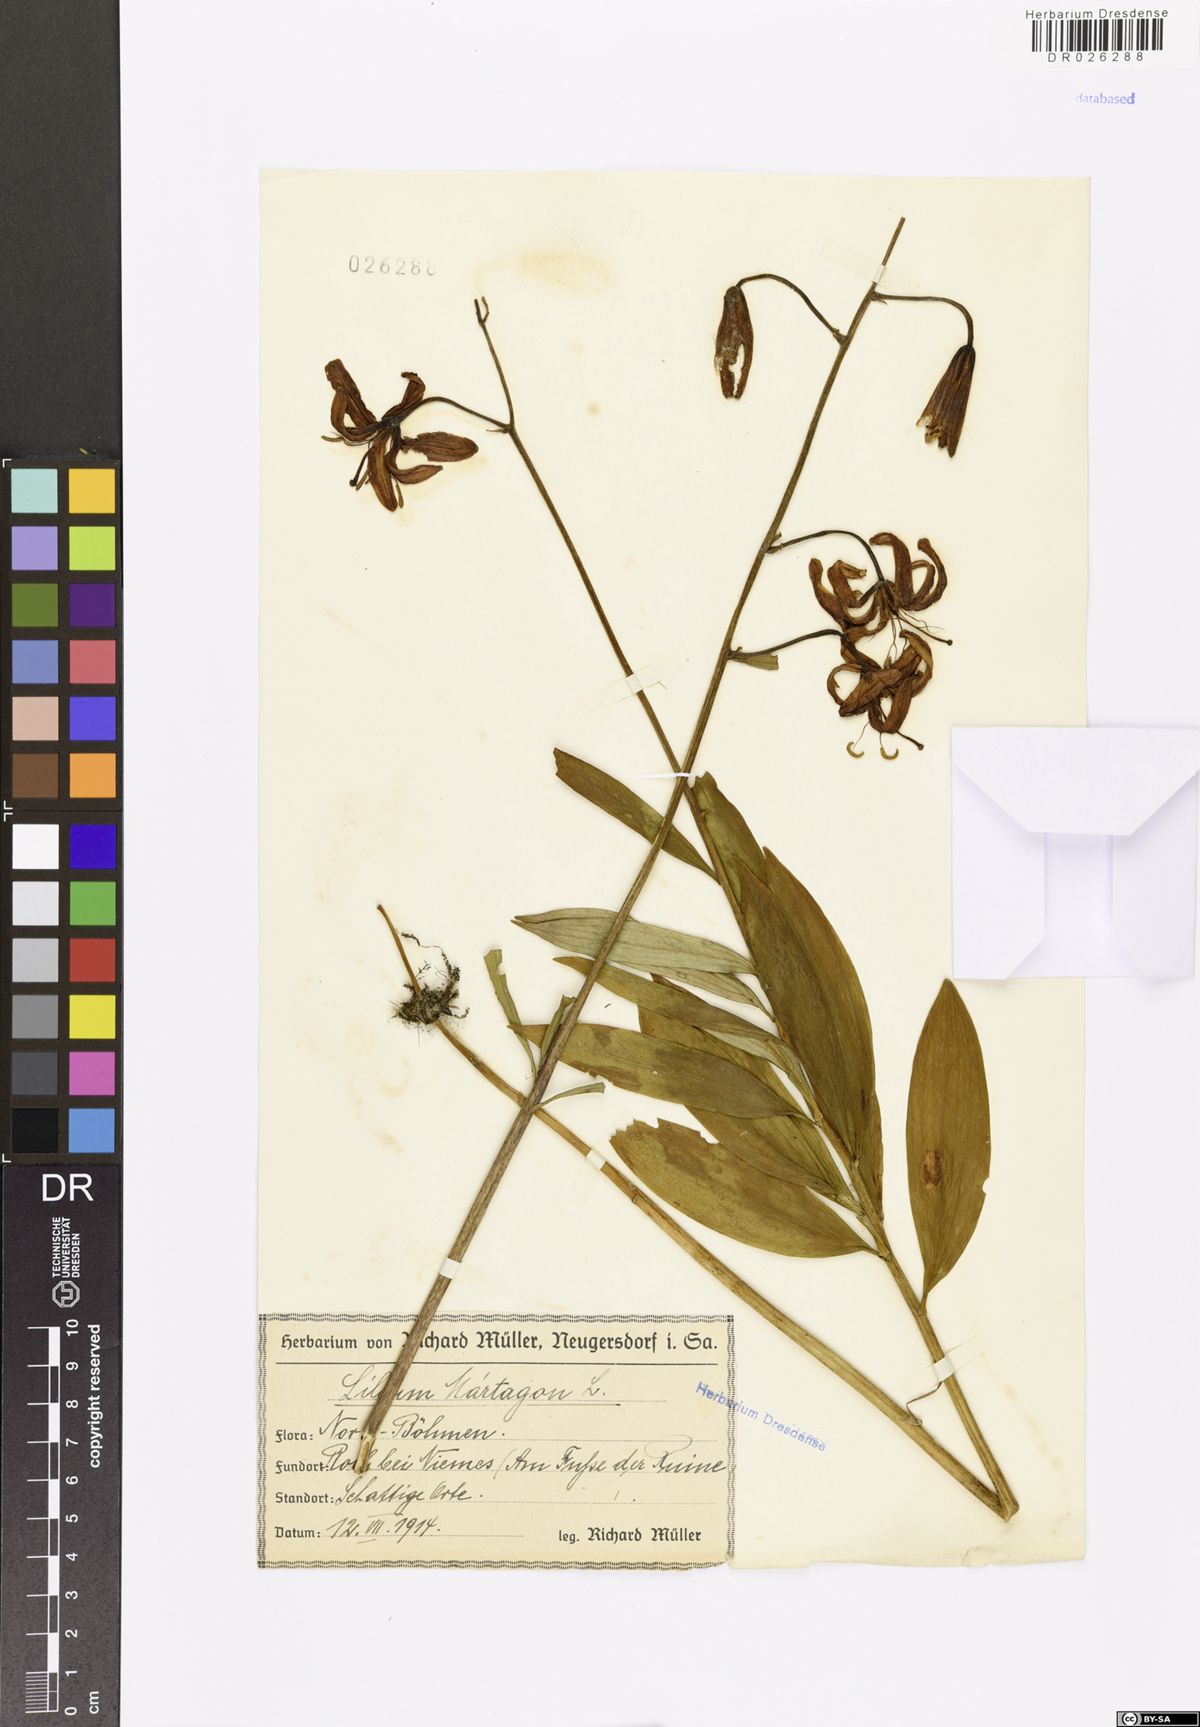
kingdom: Plantae
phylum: Tracheophyta
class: Liliopsida
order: Liliales
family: Liliaceae
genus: Lilium
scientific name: Lilium martagon
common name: Martagon lily
